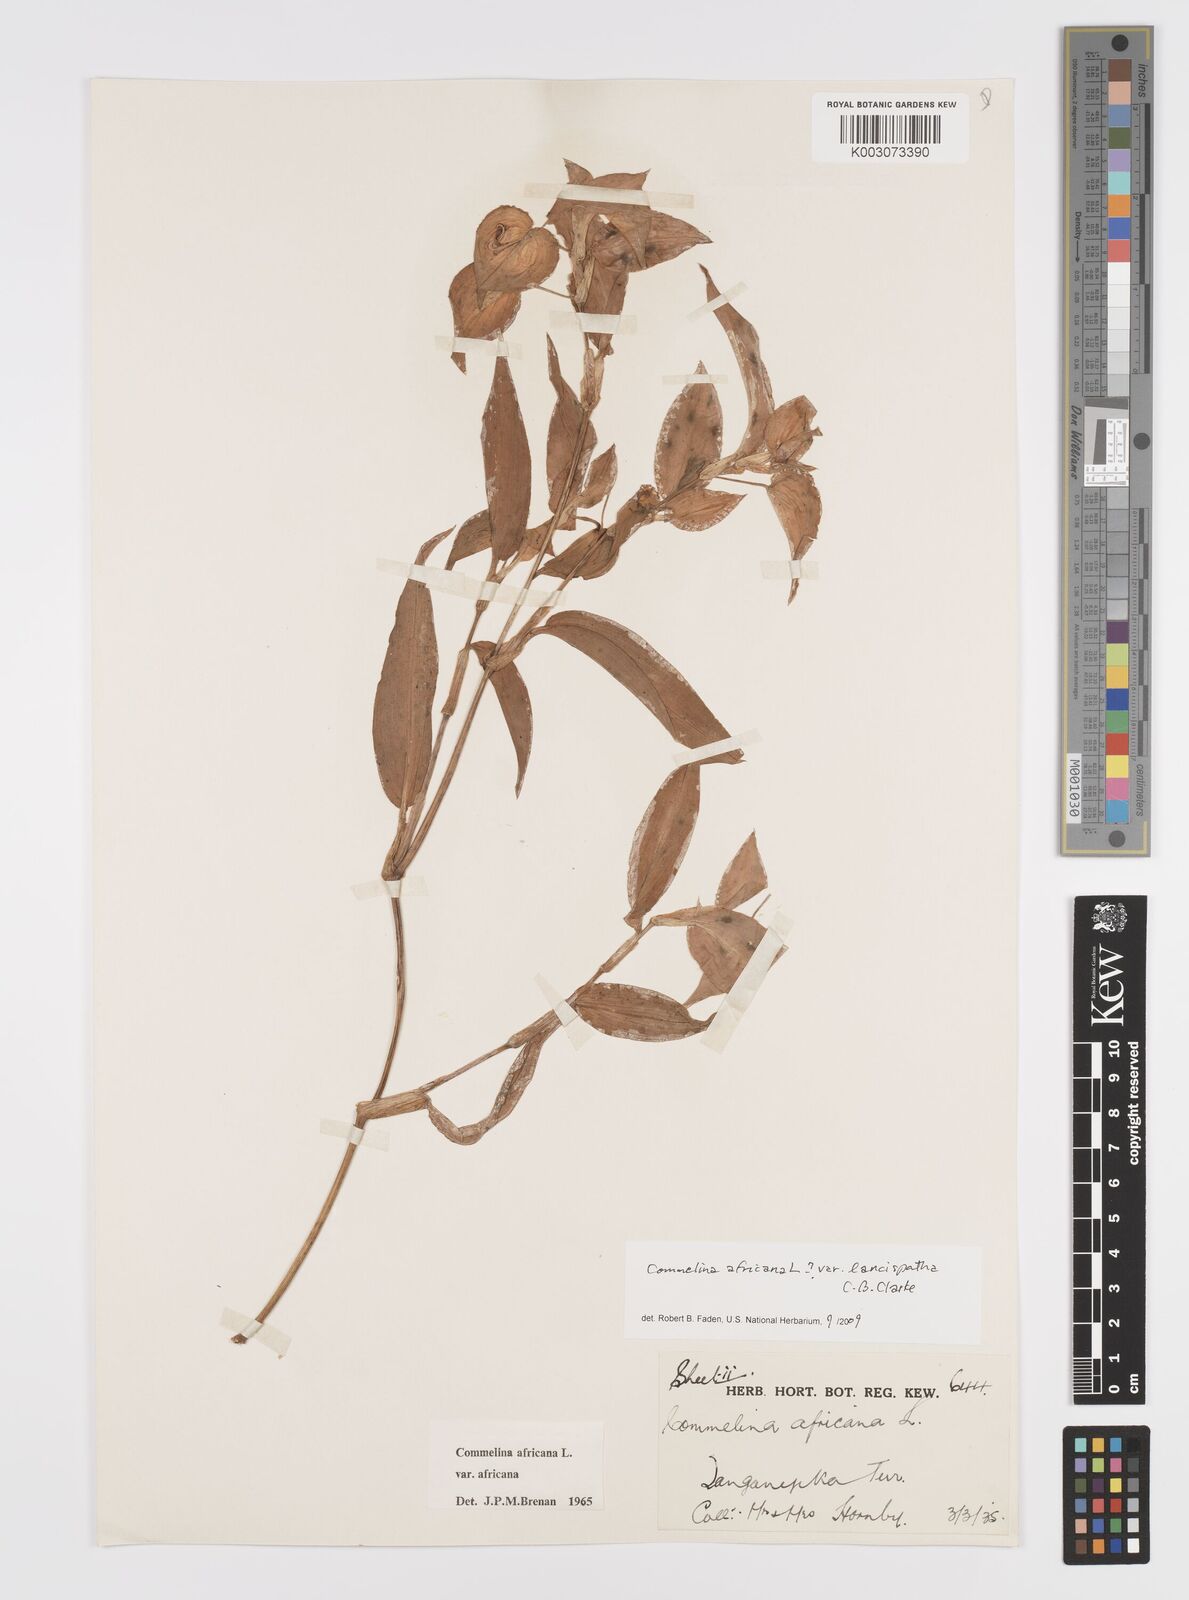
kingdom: Plantae
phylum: Tracheophyta
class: Liliopsida
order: Commelinales
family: Commelinaceae
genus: Commelina
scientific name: Commelina africana
